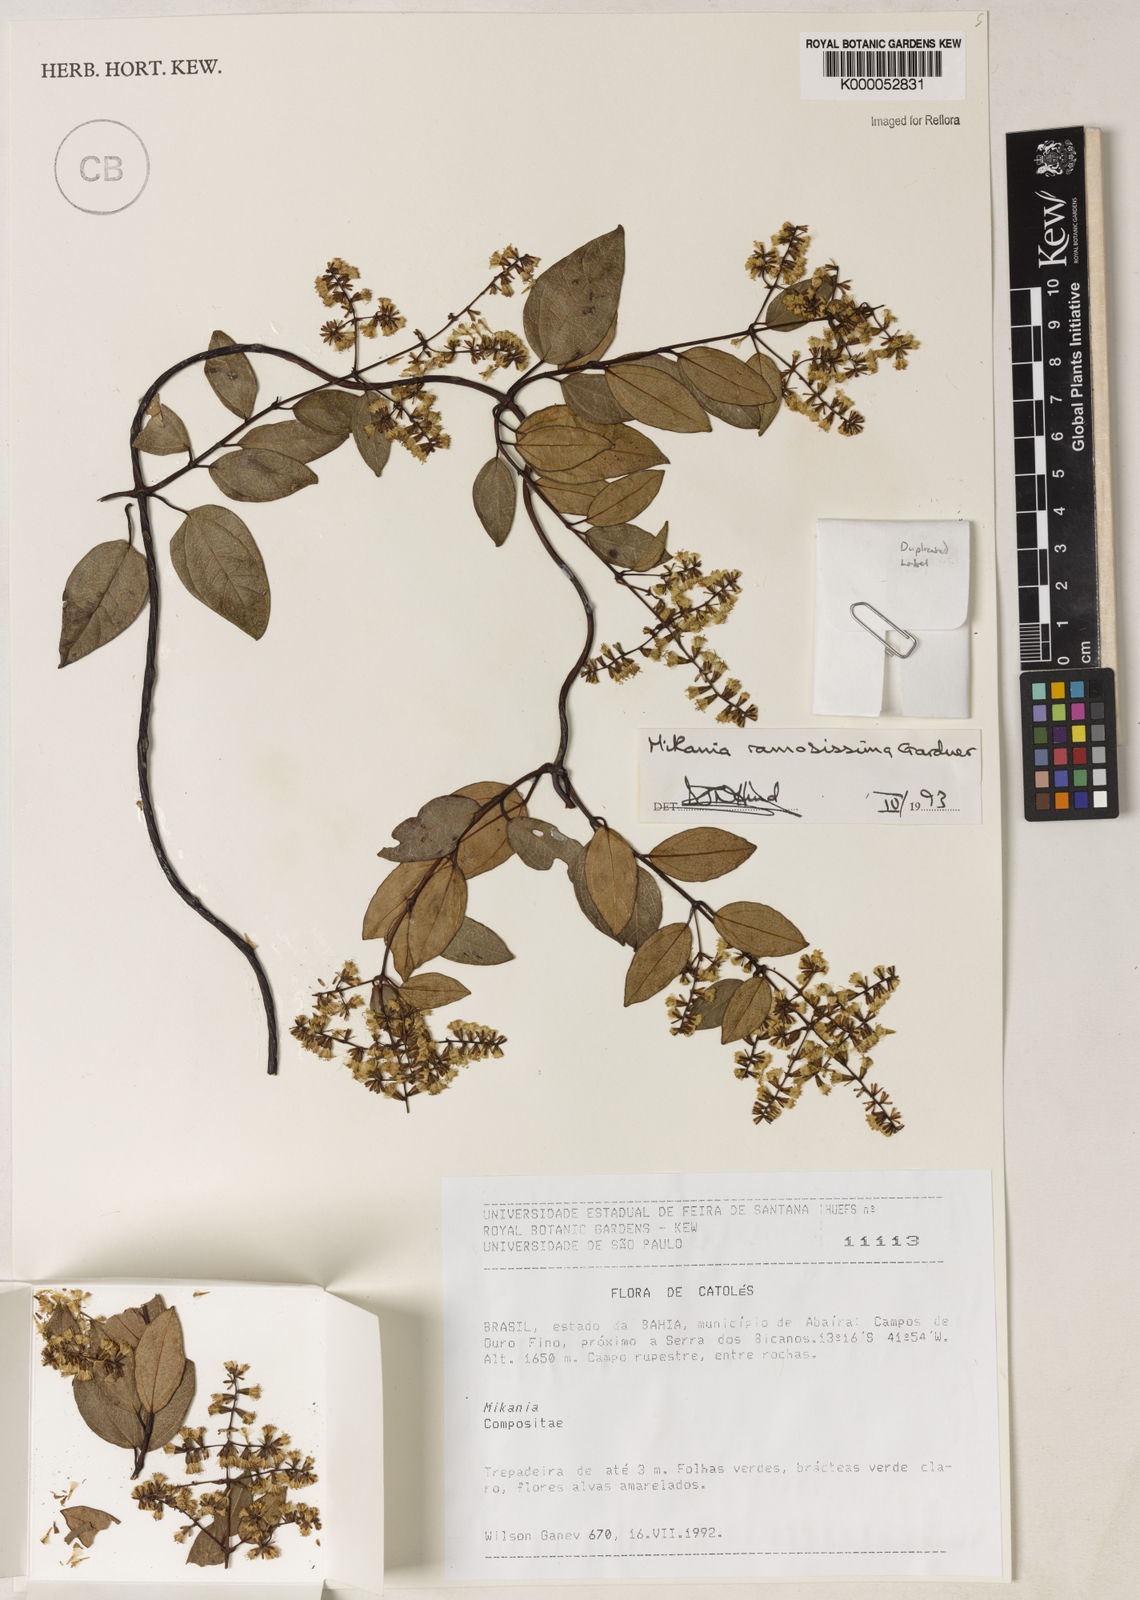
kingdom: Plantae
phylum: Tracheophyta
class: Magnoliopsida
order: Asterales
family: Asteraceae
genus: Mikania
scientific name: Mikania ramosissima
